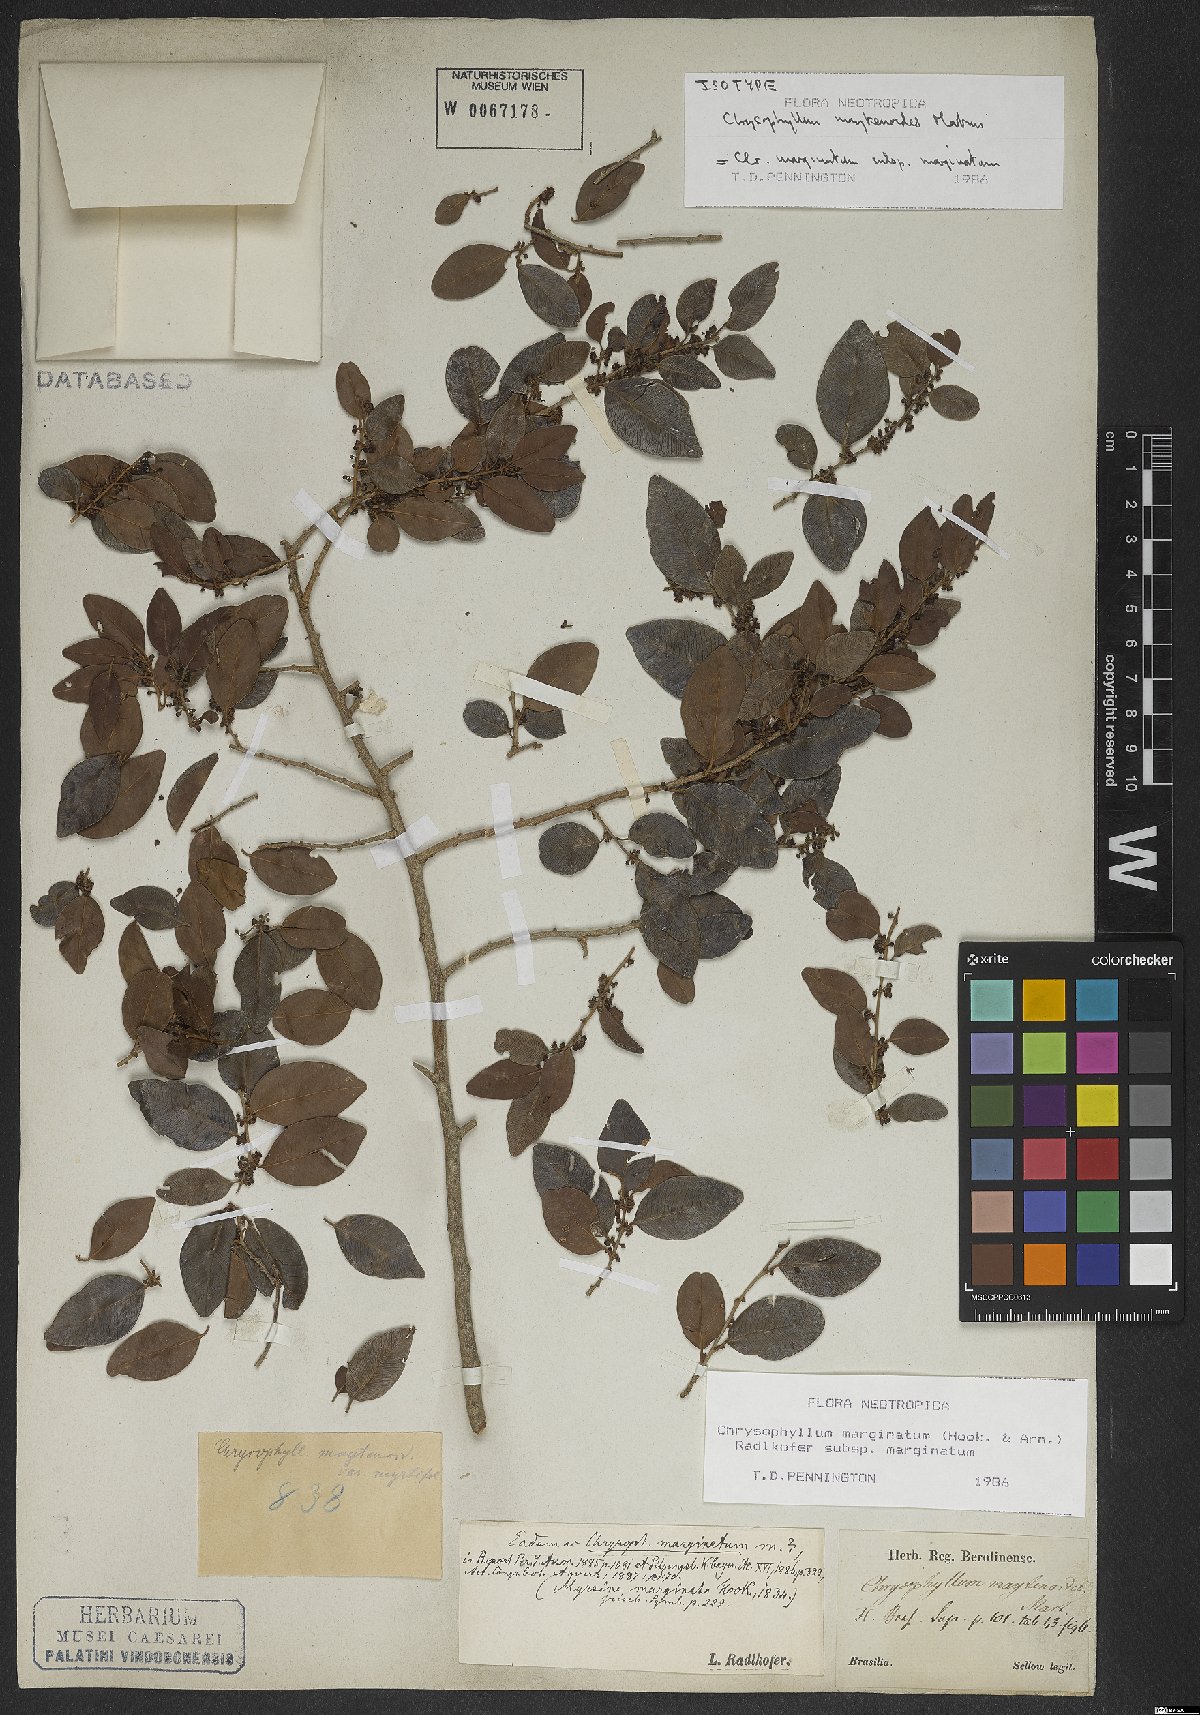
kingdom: Plantae
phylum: Tracheophyta
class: Magnoliopsida
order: Ericales
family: Sapotaceae
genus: Chrysophyllum
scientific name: Chrysophyllum marginatum
